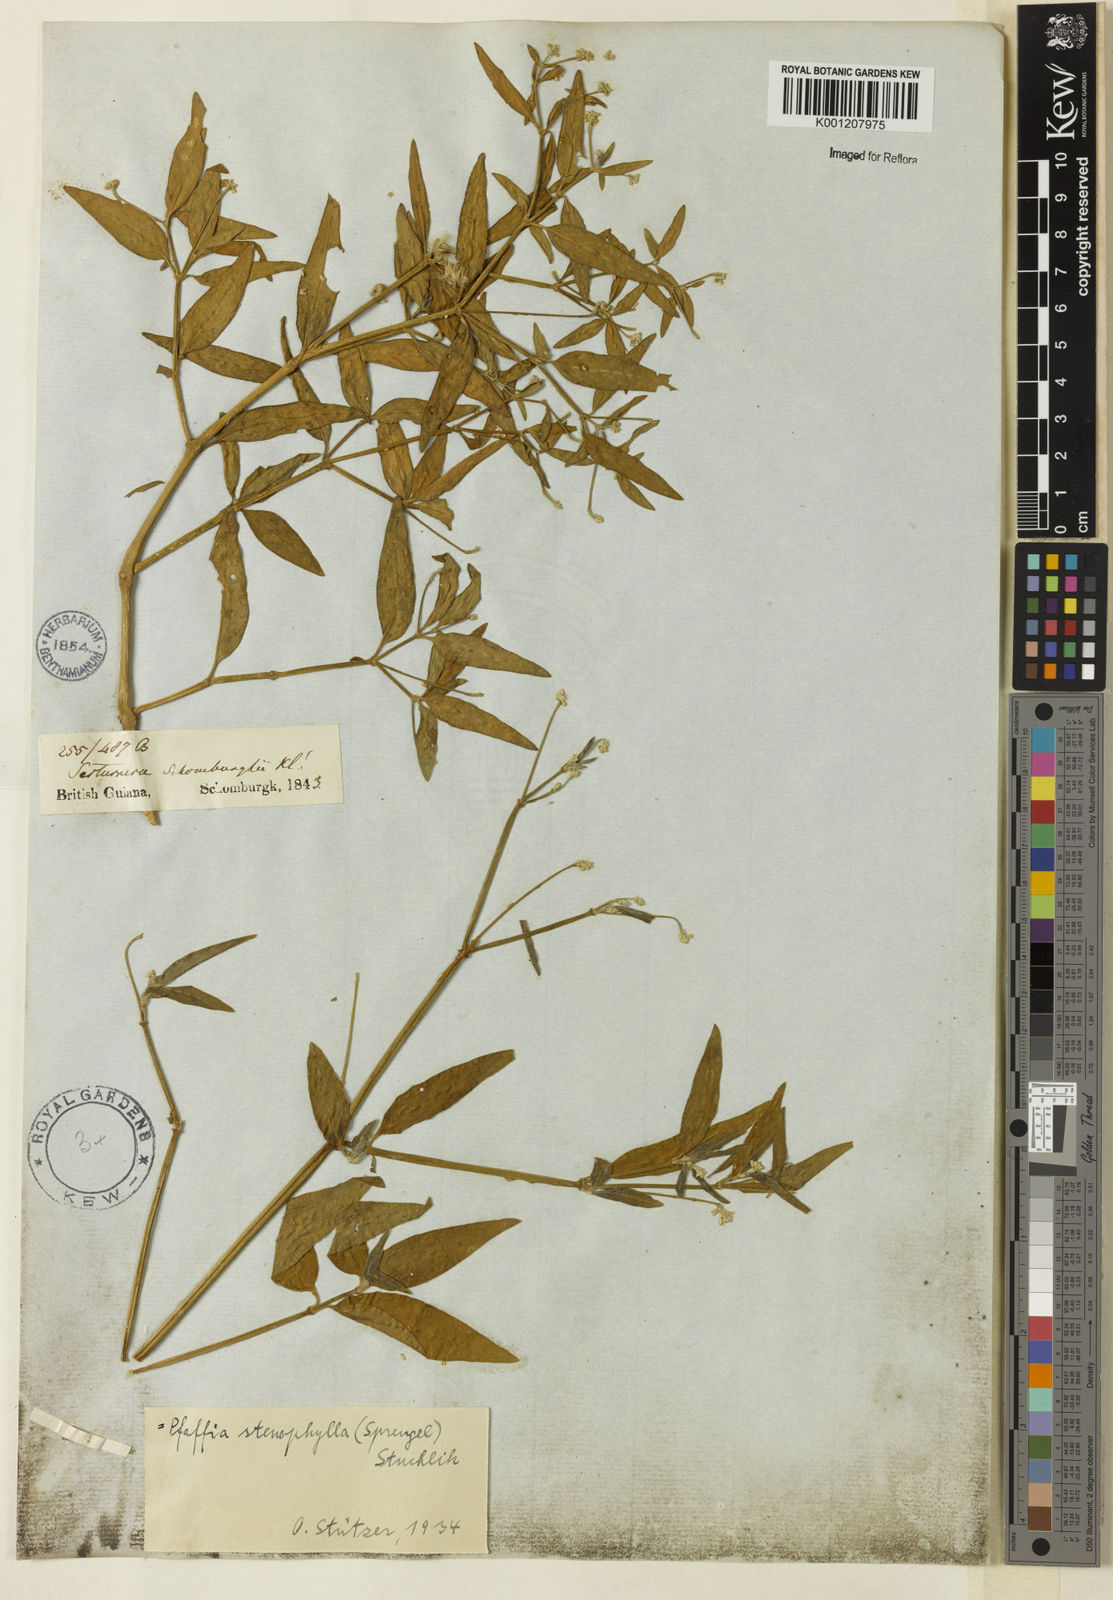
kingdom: Plantae
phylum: Tracheophyta
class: Magnoliopsida
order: Caryophyllales
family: Amaranthaceae
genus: Pfaffia
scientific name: Pfaffia
